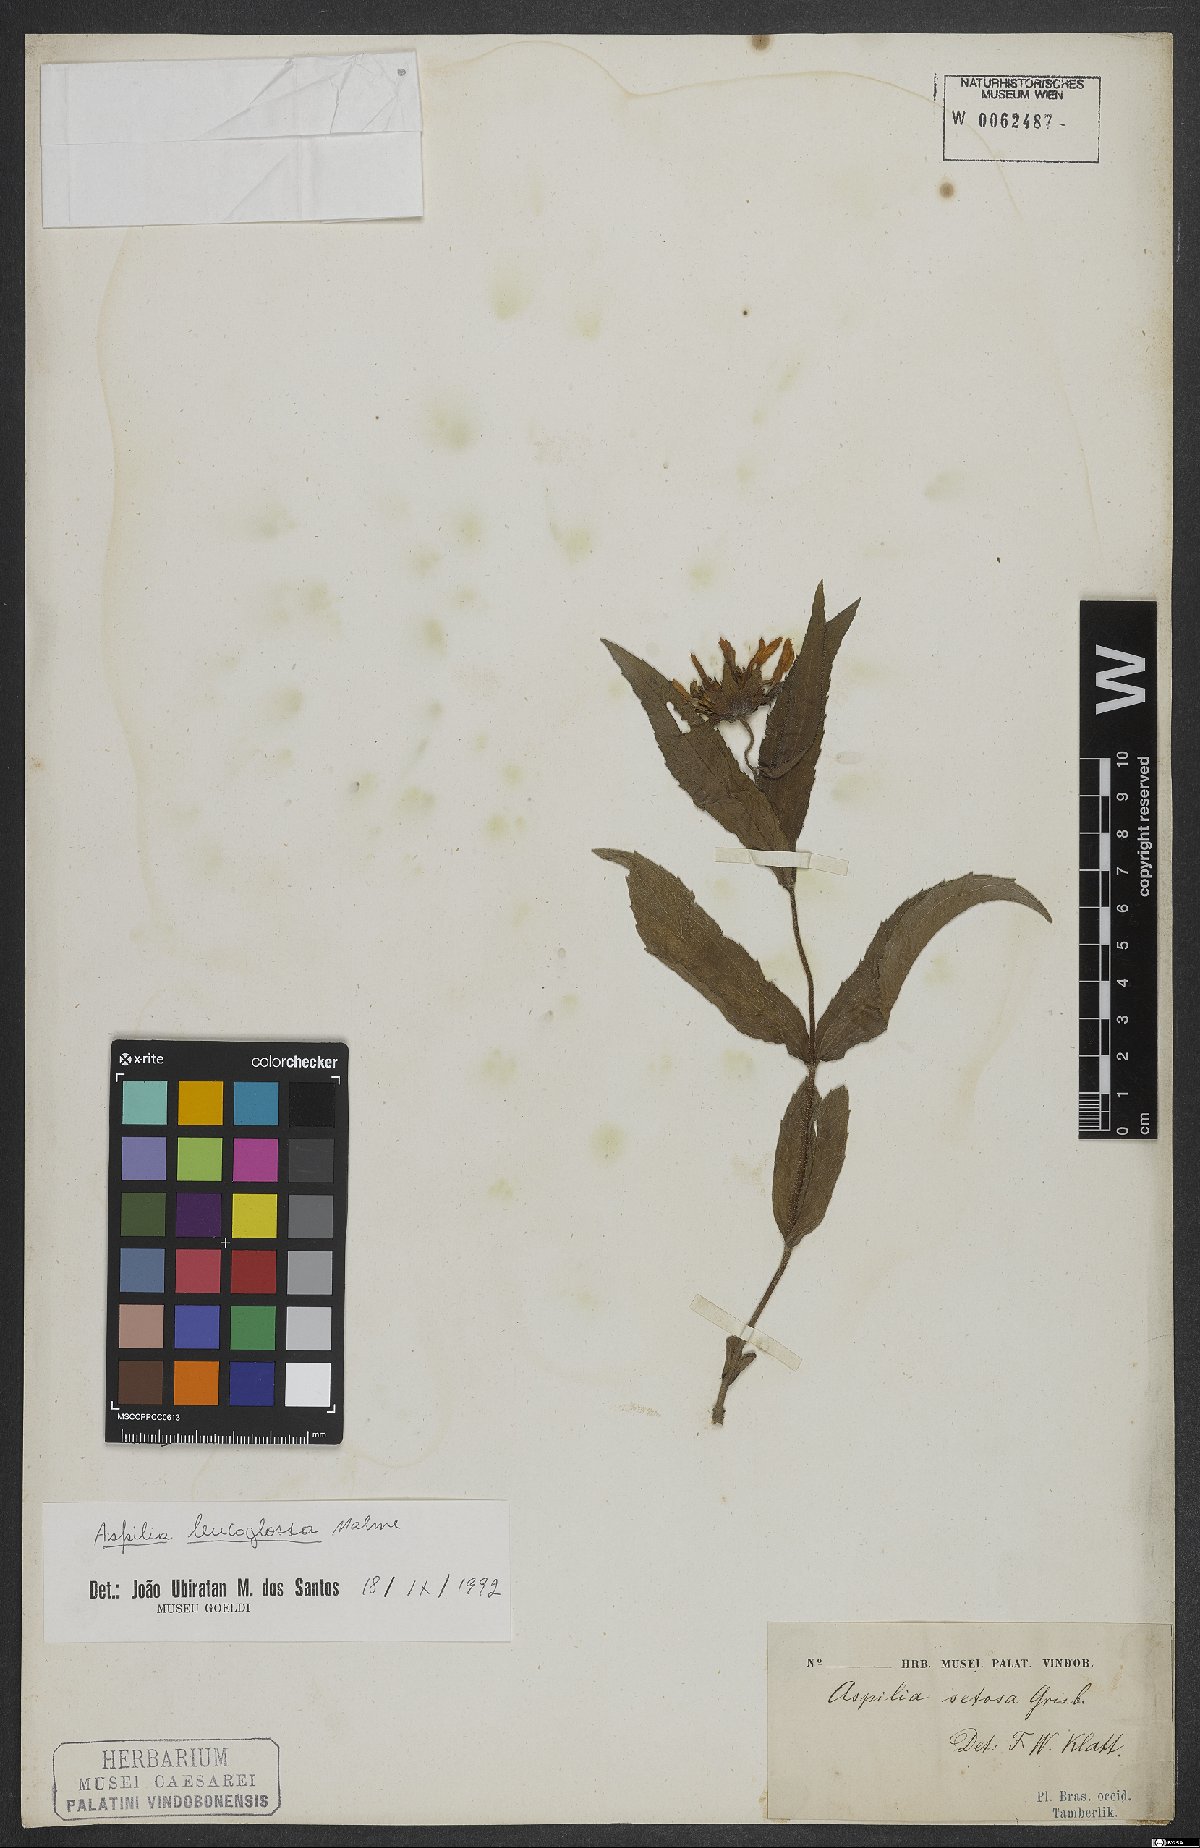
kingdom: Plantae
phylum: Tracheophyta
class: Magnoliopsida
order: Asterales
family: Asteraceae
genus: Wedelia
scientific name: Wedelia leucoglossa
